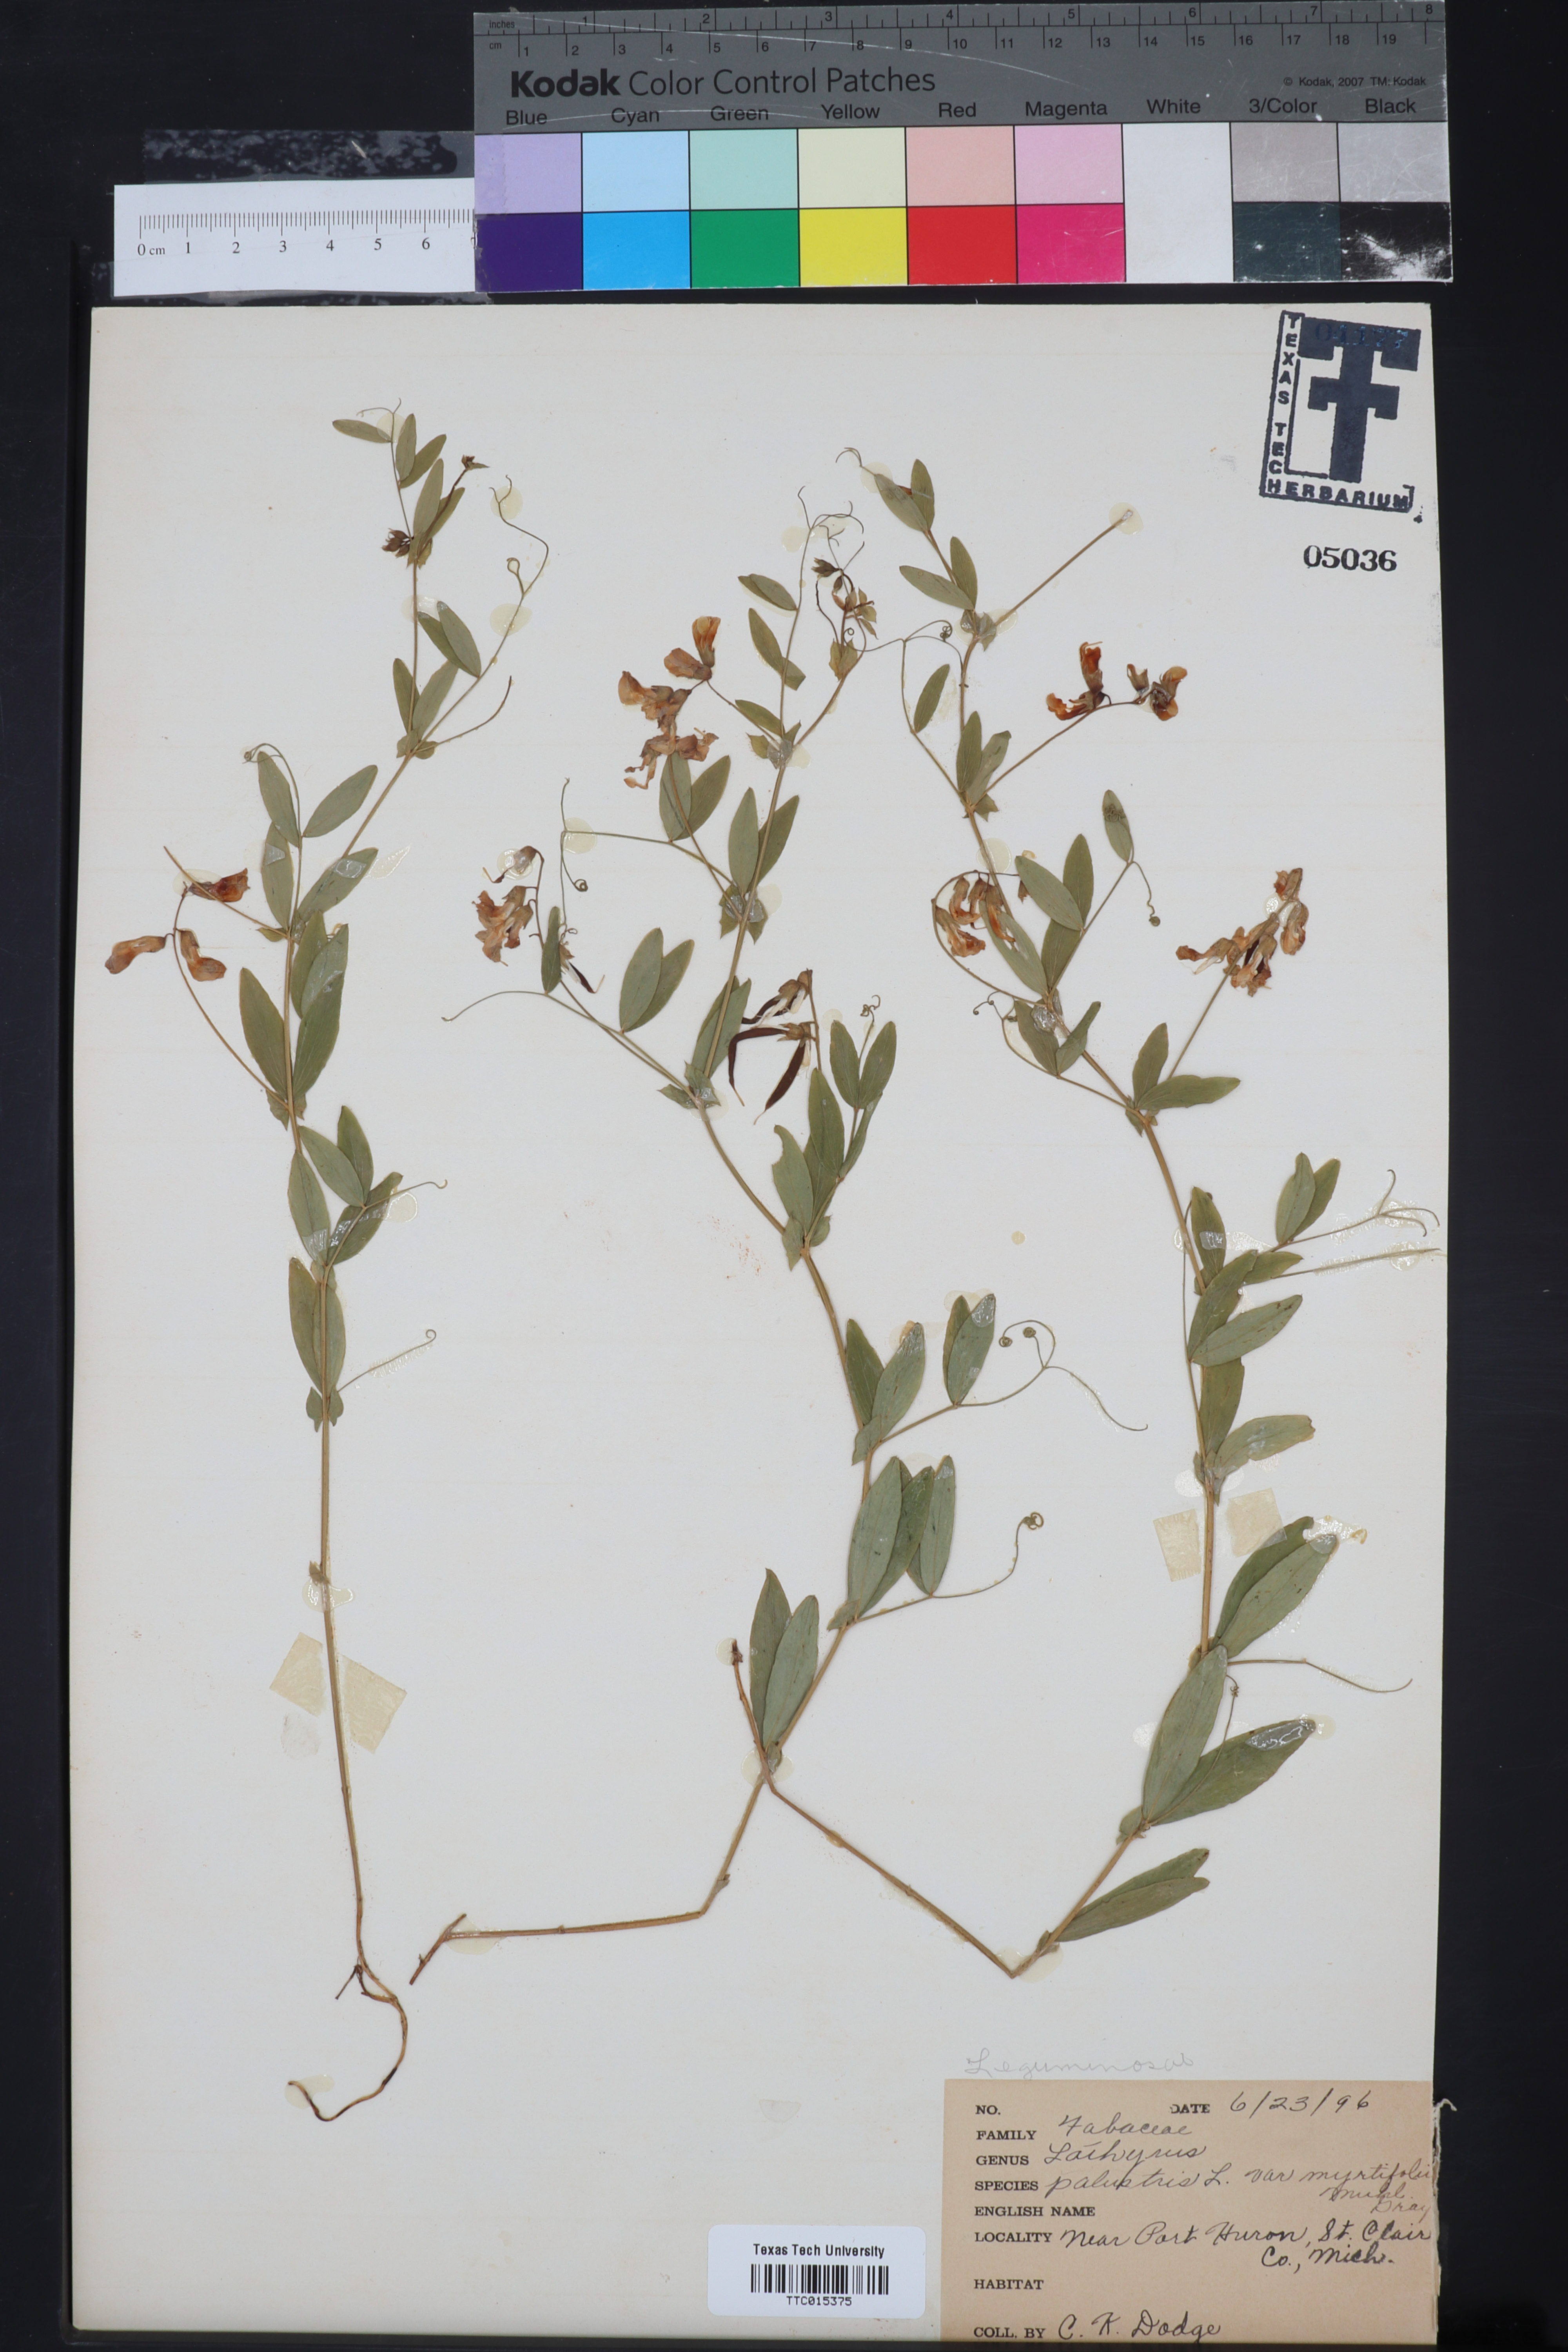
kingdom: Plantae
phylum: Tracheophyta
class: Magnoliopsida
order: Fabales
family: Fabaceae
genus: Lathyrus
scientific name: Lathyrus palustris
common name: Marsh pea
